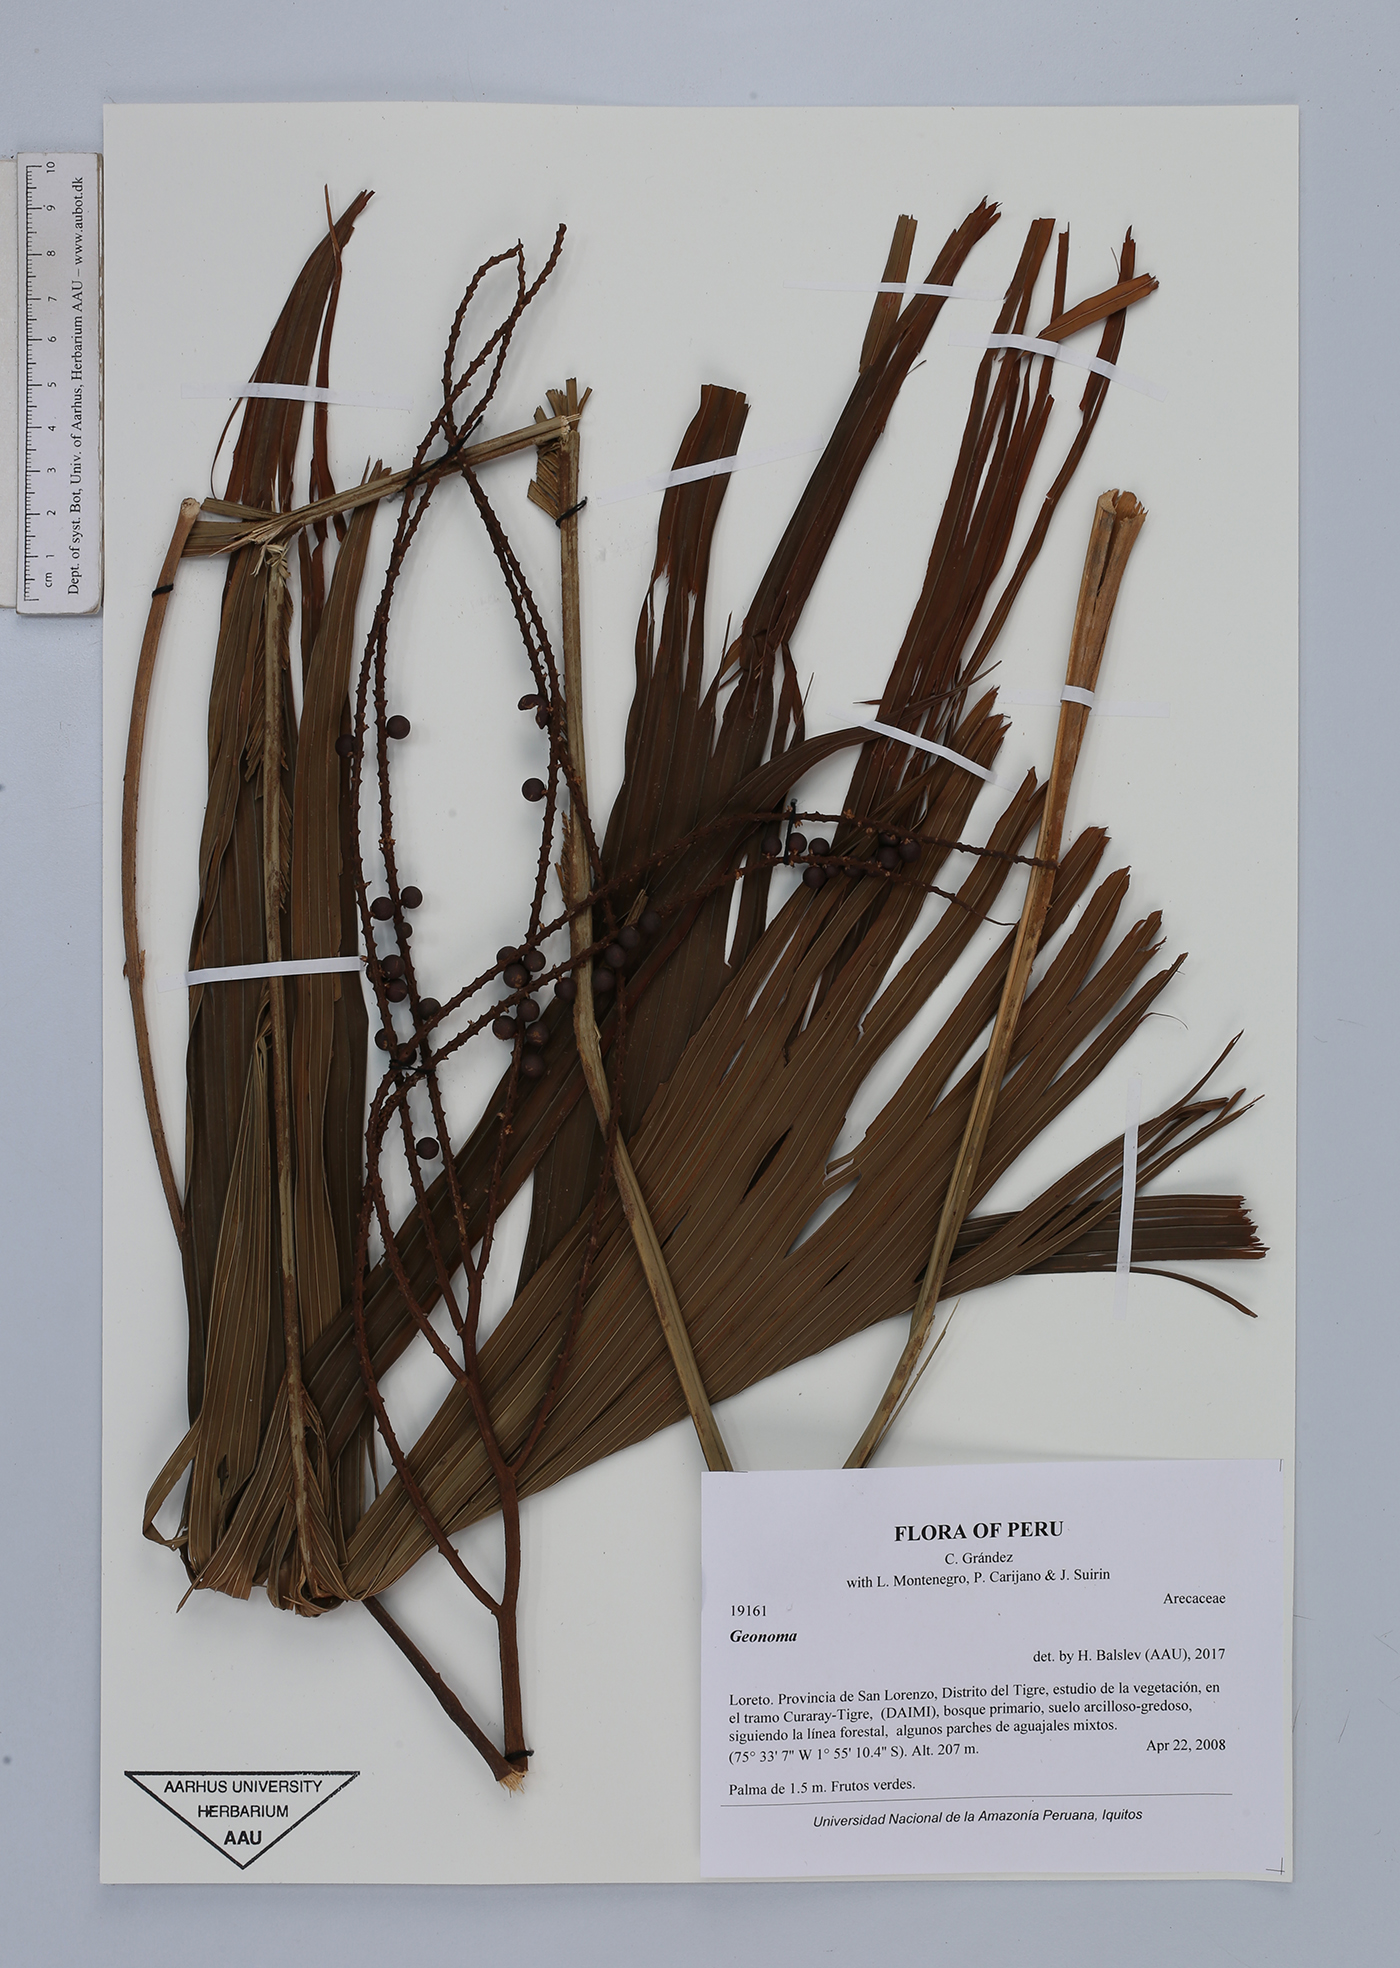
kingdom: Plantae
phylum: Tracheophyta
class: Liliopsida
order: Arecales
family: Arecaceae
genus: Geonoma
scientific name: Geonoma
